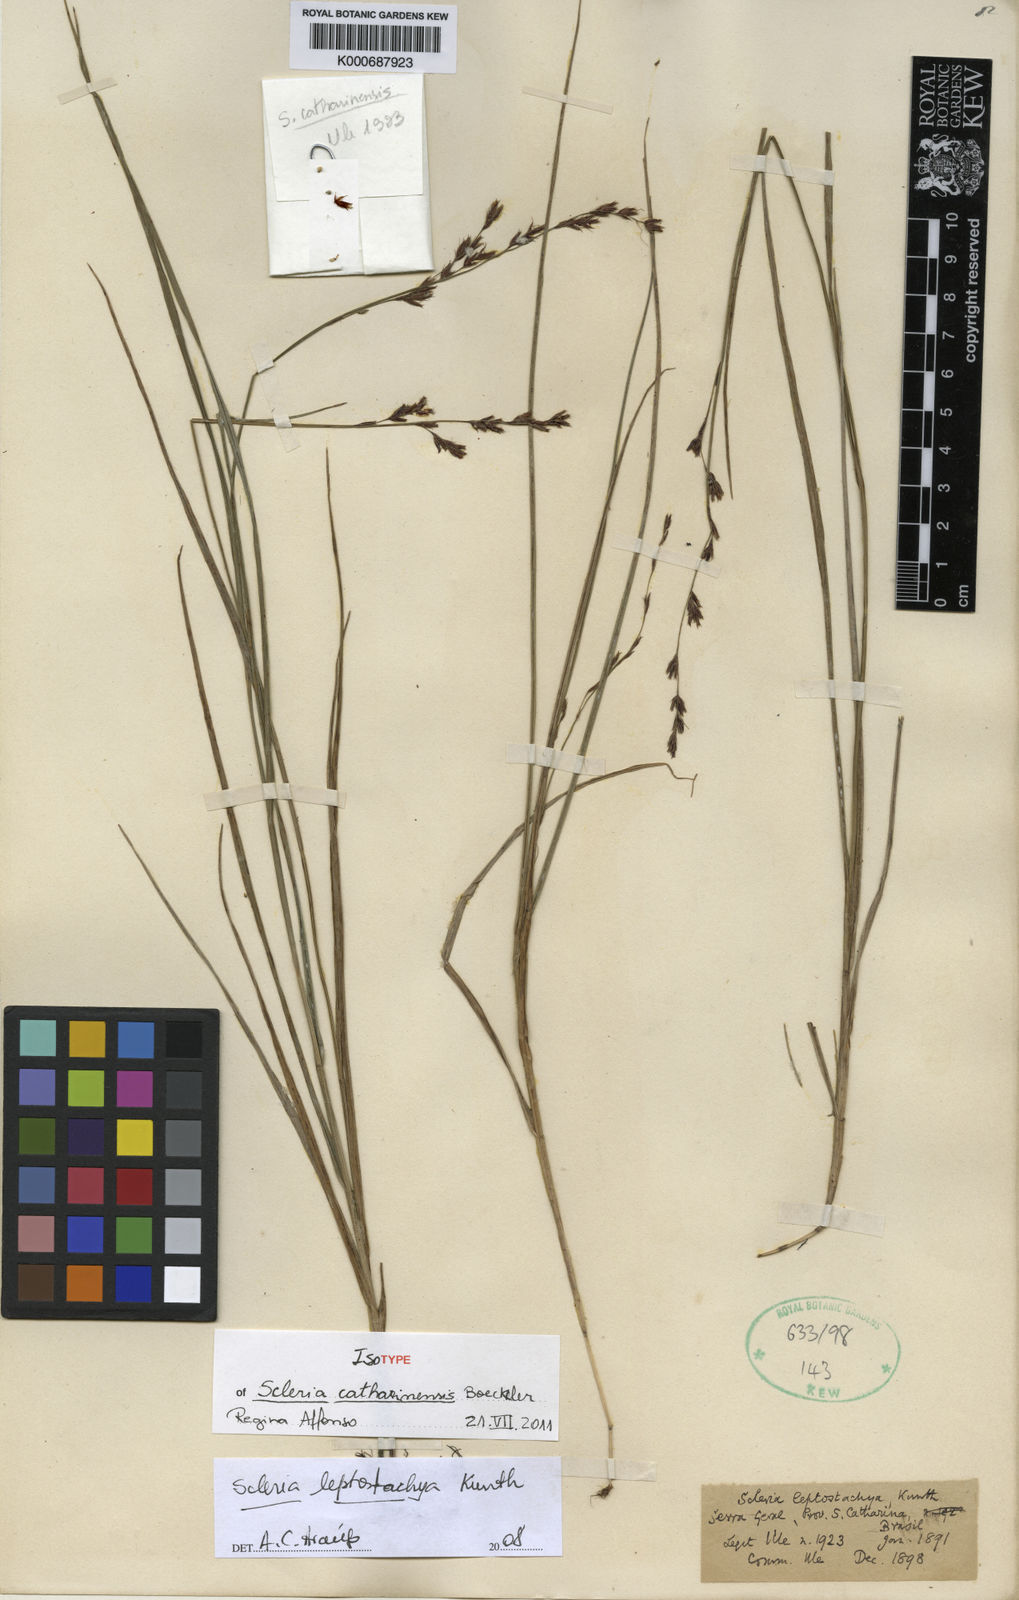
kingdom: Plantae
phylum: Tracheophyta
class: Liliopsida
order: Poales
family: Cyperaceae
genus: Scleria
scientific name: Scleria leptostachya
